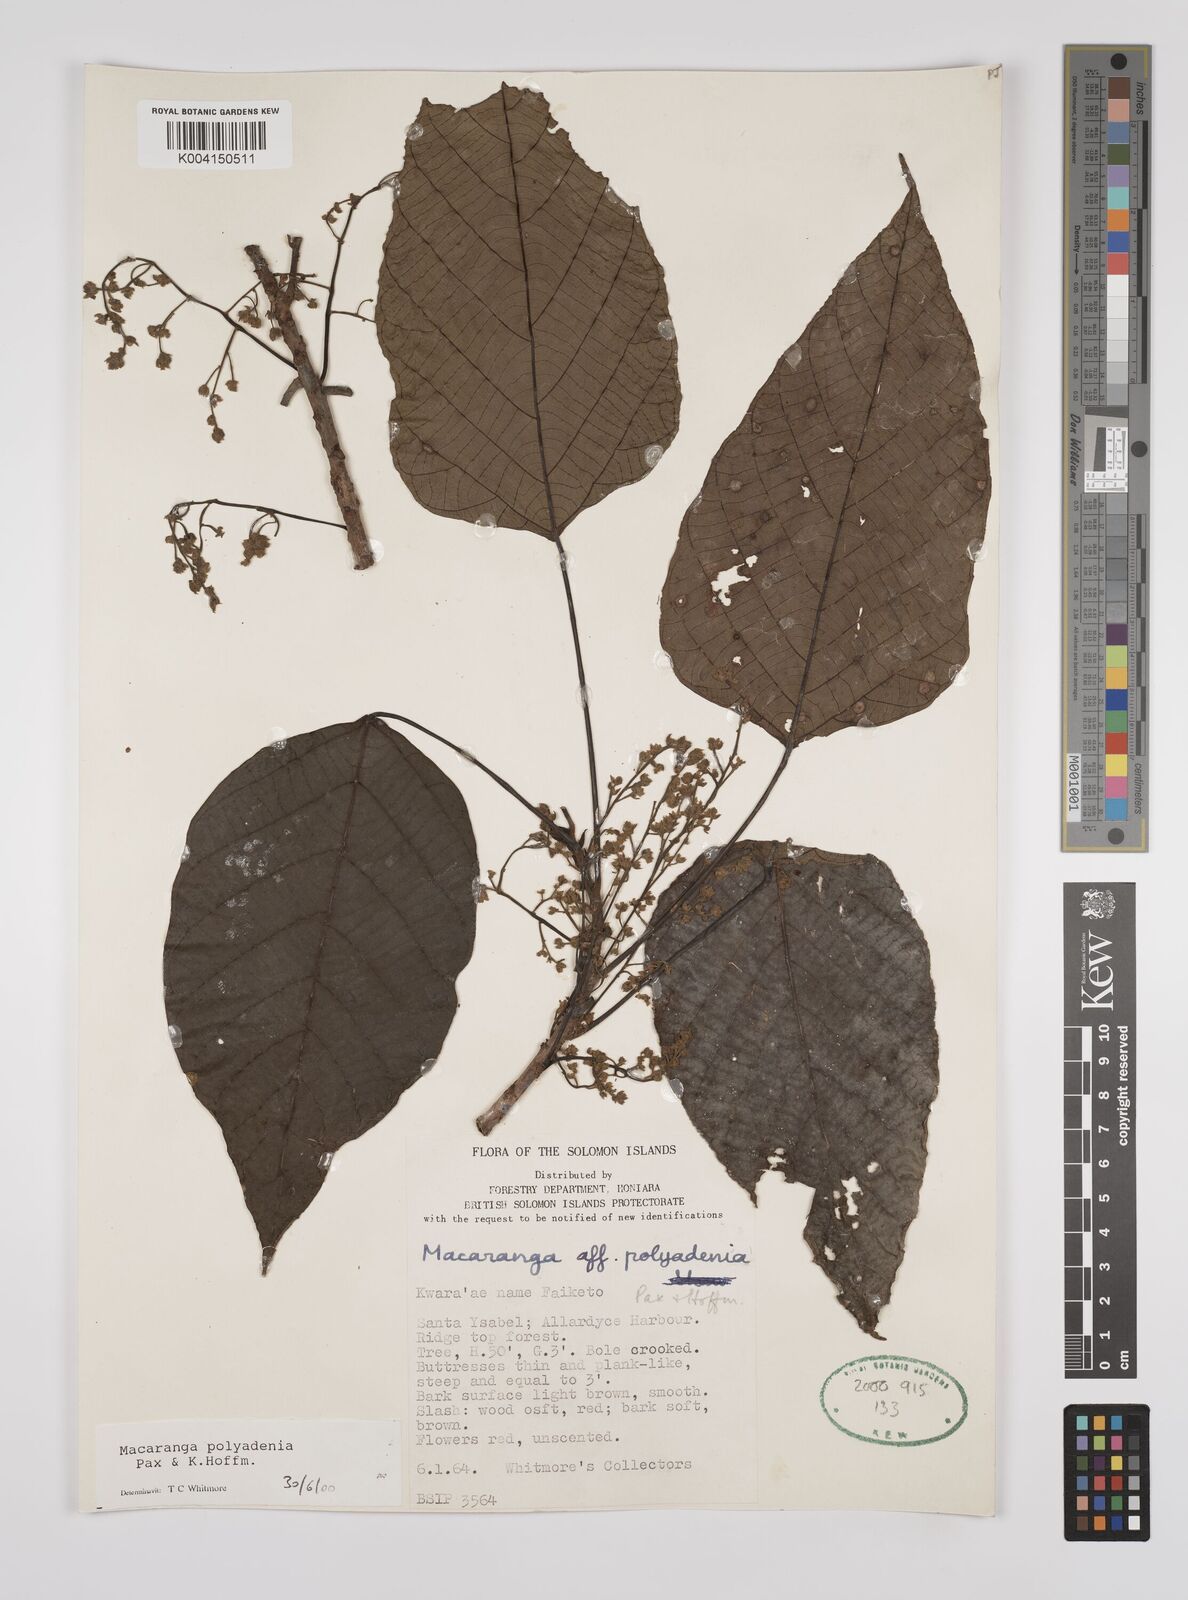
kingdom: Plantae
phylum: Tracheophyta
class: Magnoliopsida
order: Malpighiales
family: Euphorbiaceae
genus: Macaranga
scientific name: Macaranga polyadenia
